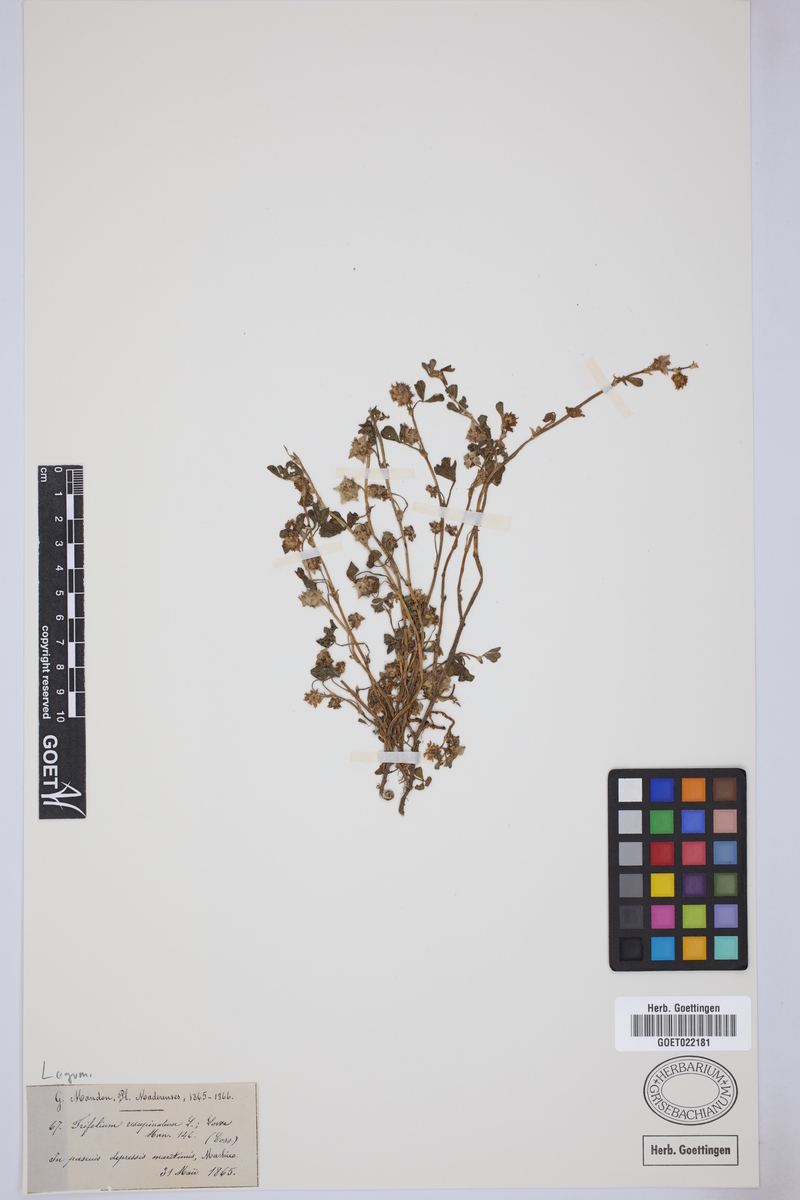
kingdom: Plantae
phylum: Tracheophyta
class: Magnoliopsida
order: Fabales
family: Fabaceae
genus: Trifolium
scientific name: Trifolium resupinatum
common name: Reversed clover
